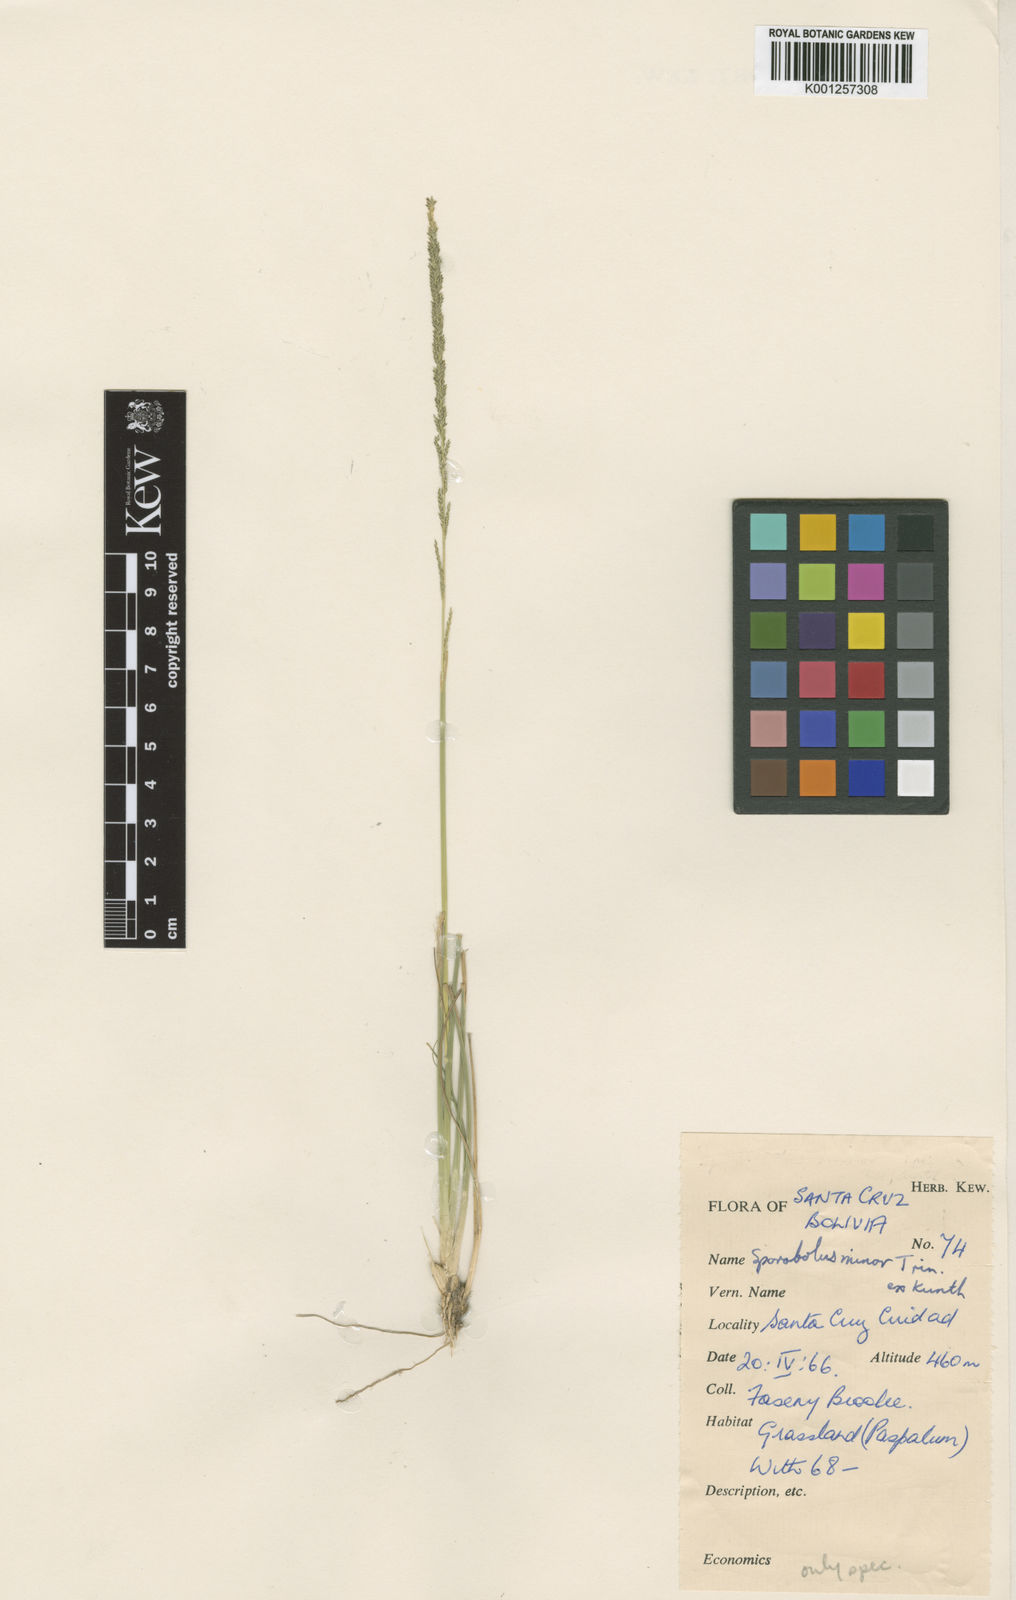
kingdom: Plantae
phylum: Tracheophyta
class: Liliopsida
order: Poales
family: Poaceae
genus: Sporobolus
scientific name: Sporobolus
